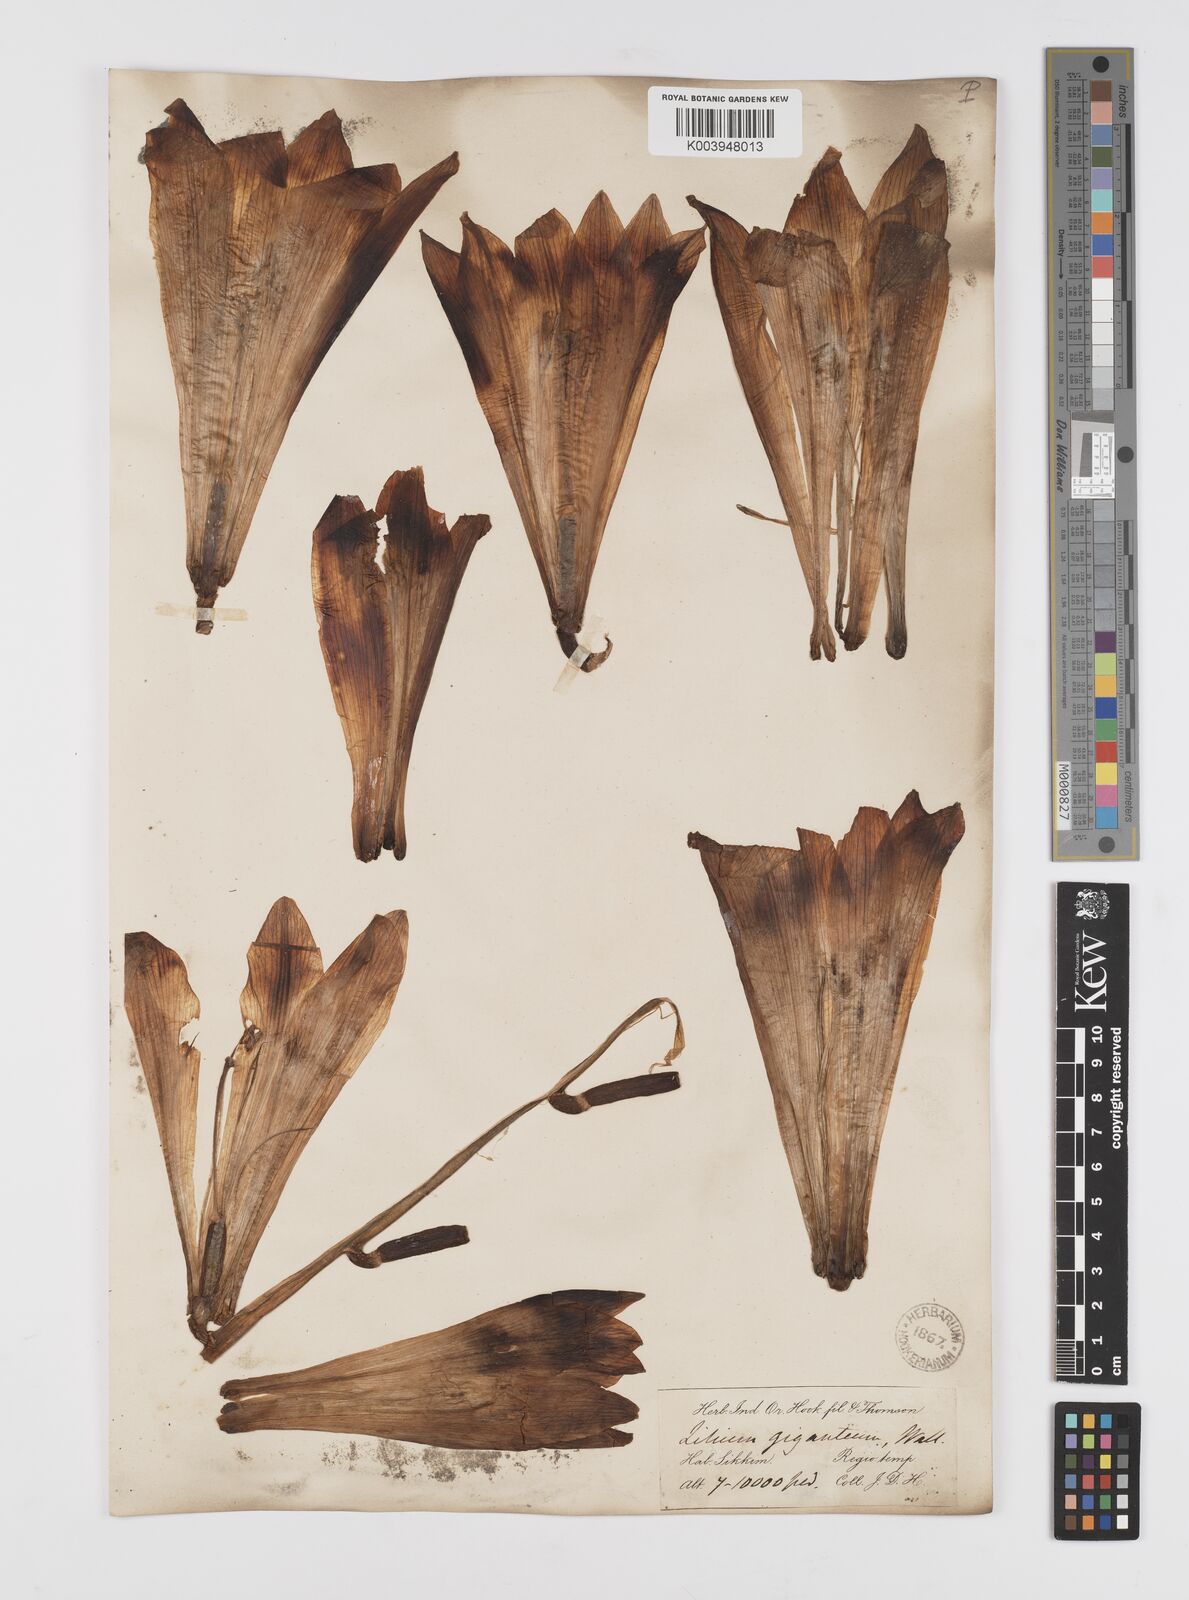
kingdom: Plantae
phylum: Tracheophyta
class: Liliopsida
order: Liliales
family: Liliaceae
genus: Cardiocrinum
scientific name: Cardiocrinum giganteum
